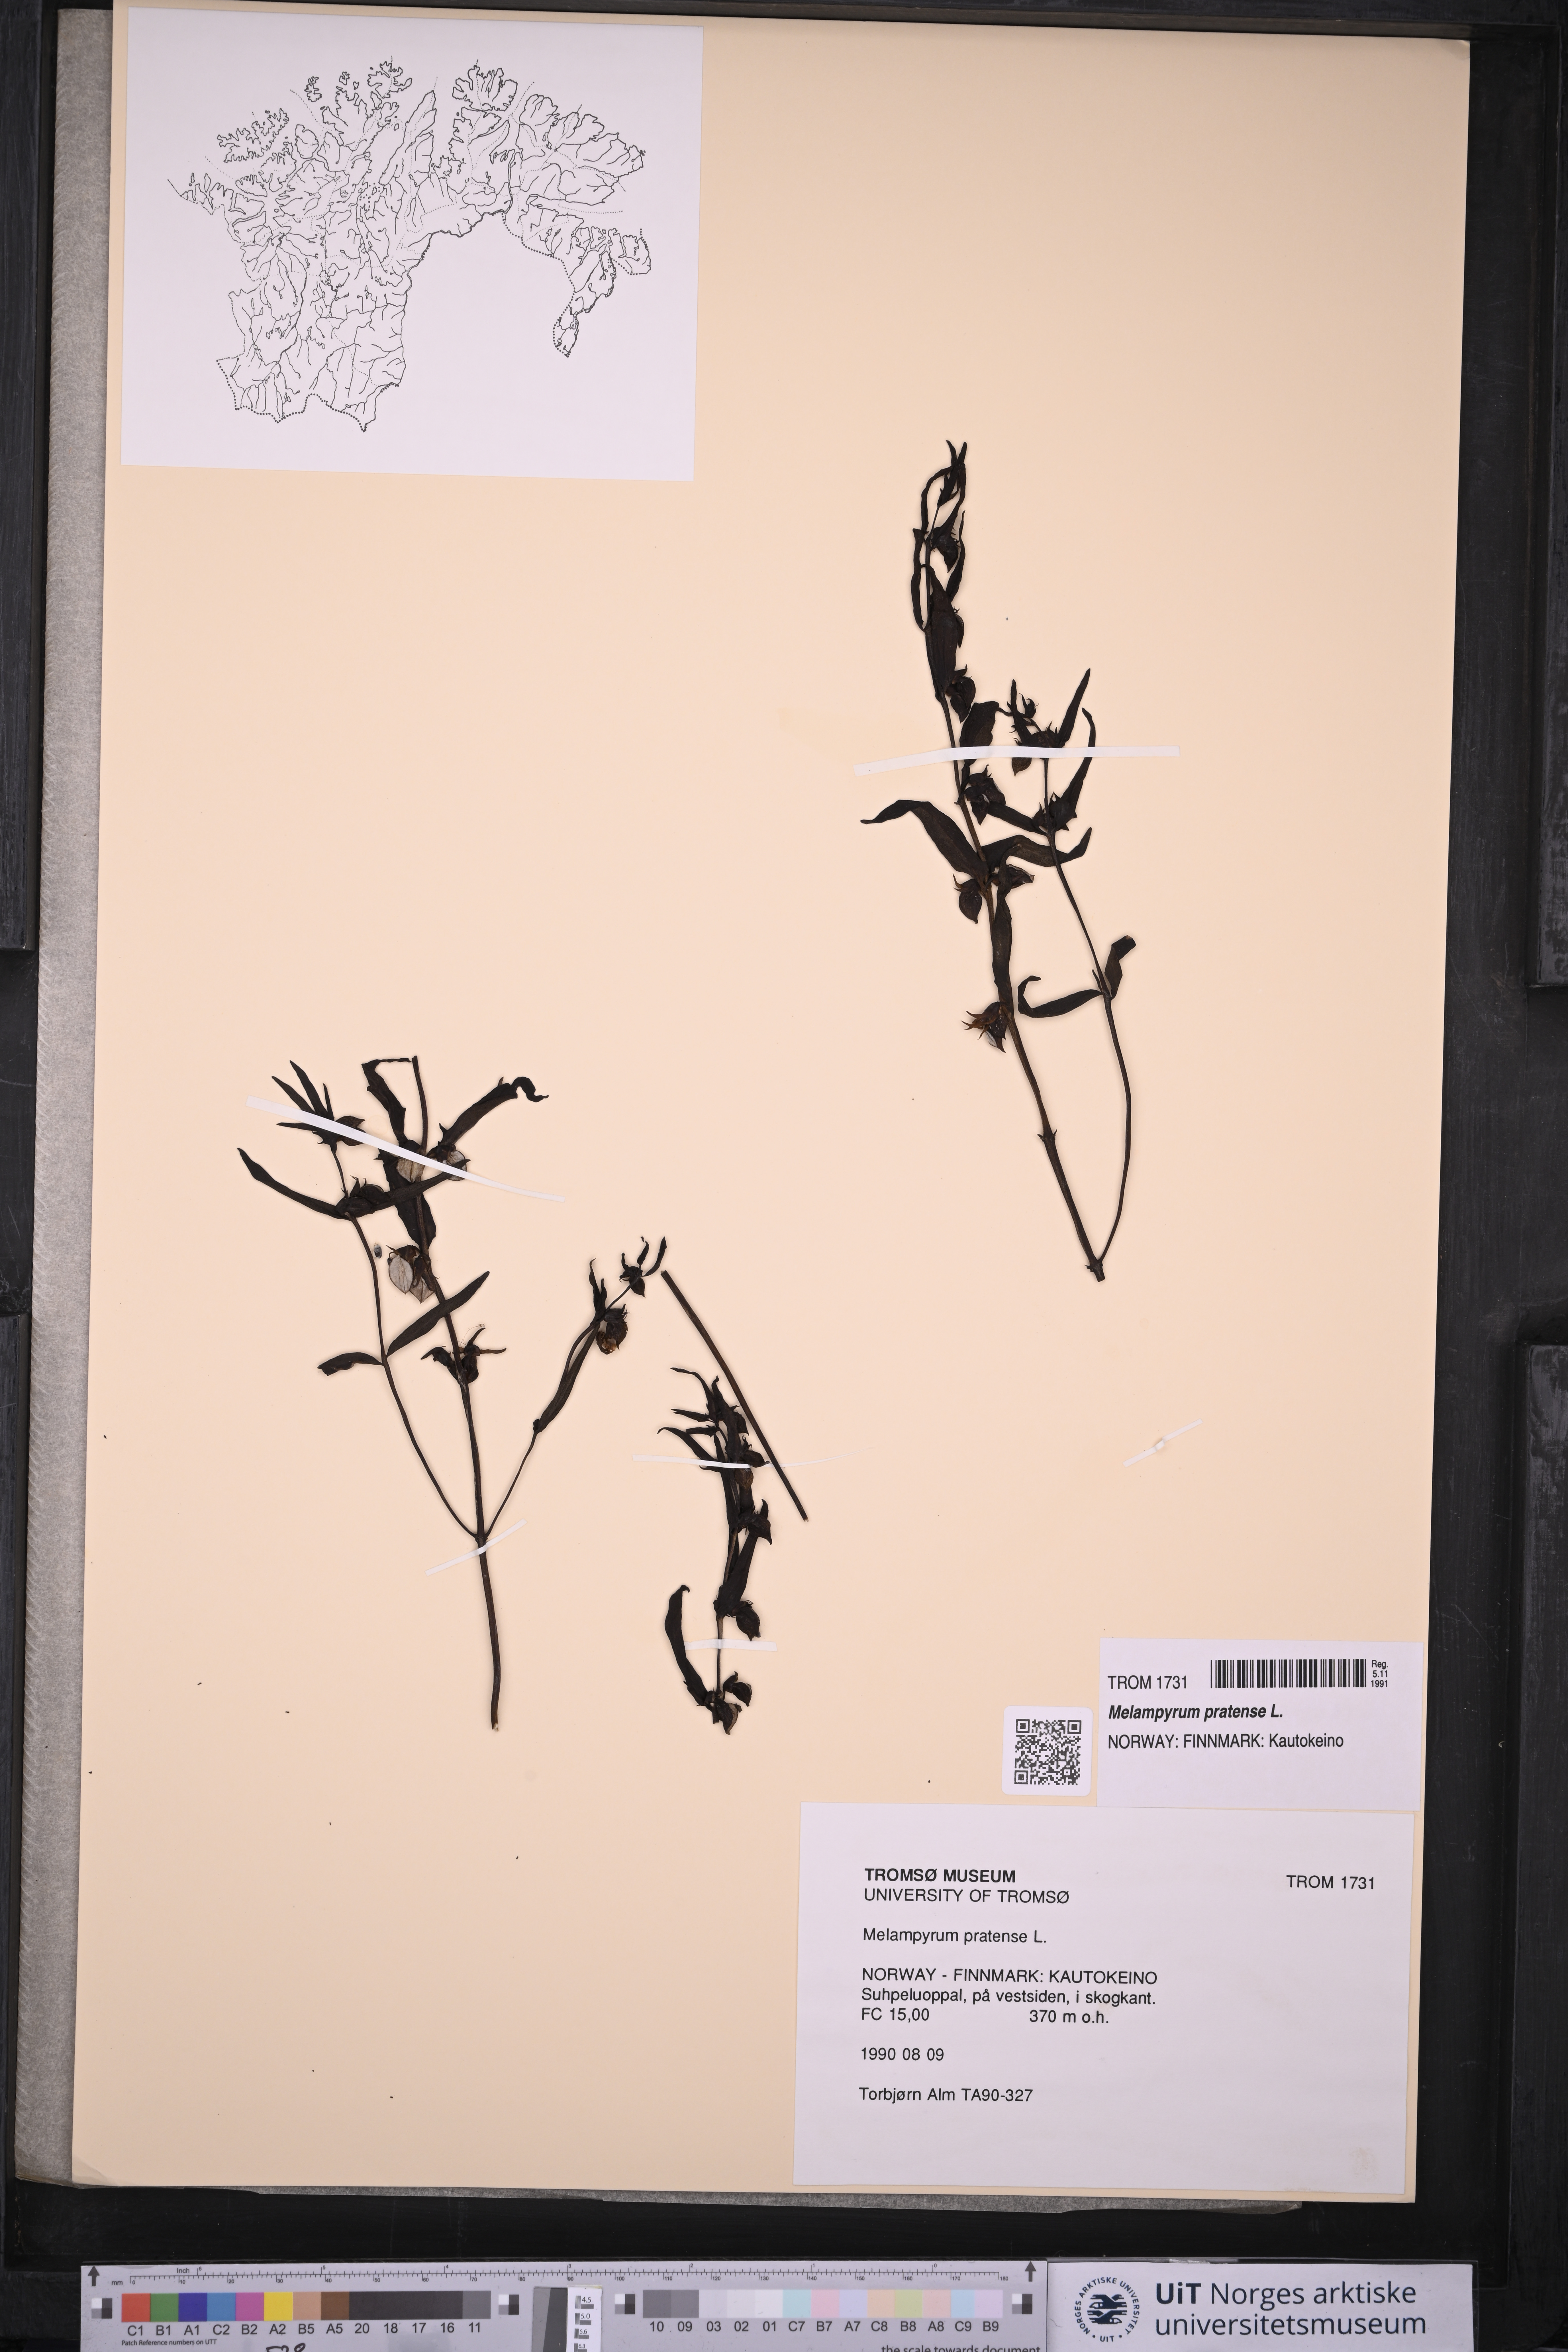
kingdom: Plantae
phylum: Tracheophyta
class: Magnoliopsida
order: Lamiales
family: Orobanchaceae
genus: Melampyrum
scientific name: Melampyrum pratense
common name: Common cow-wheat
